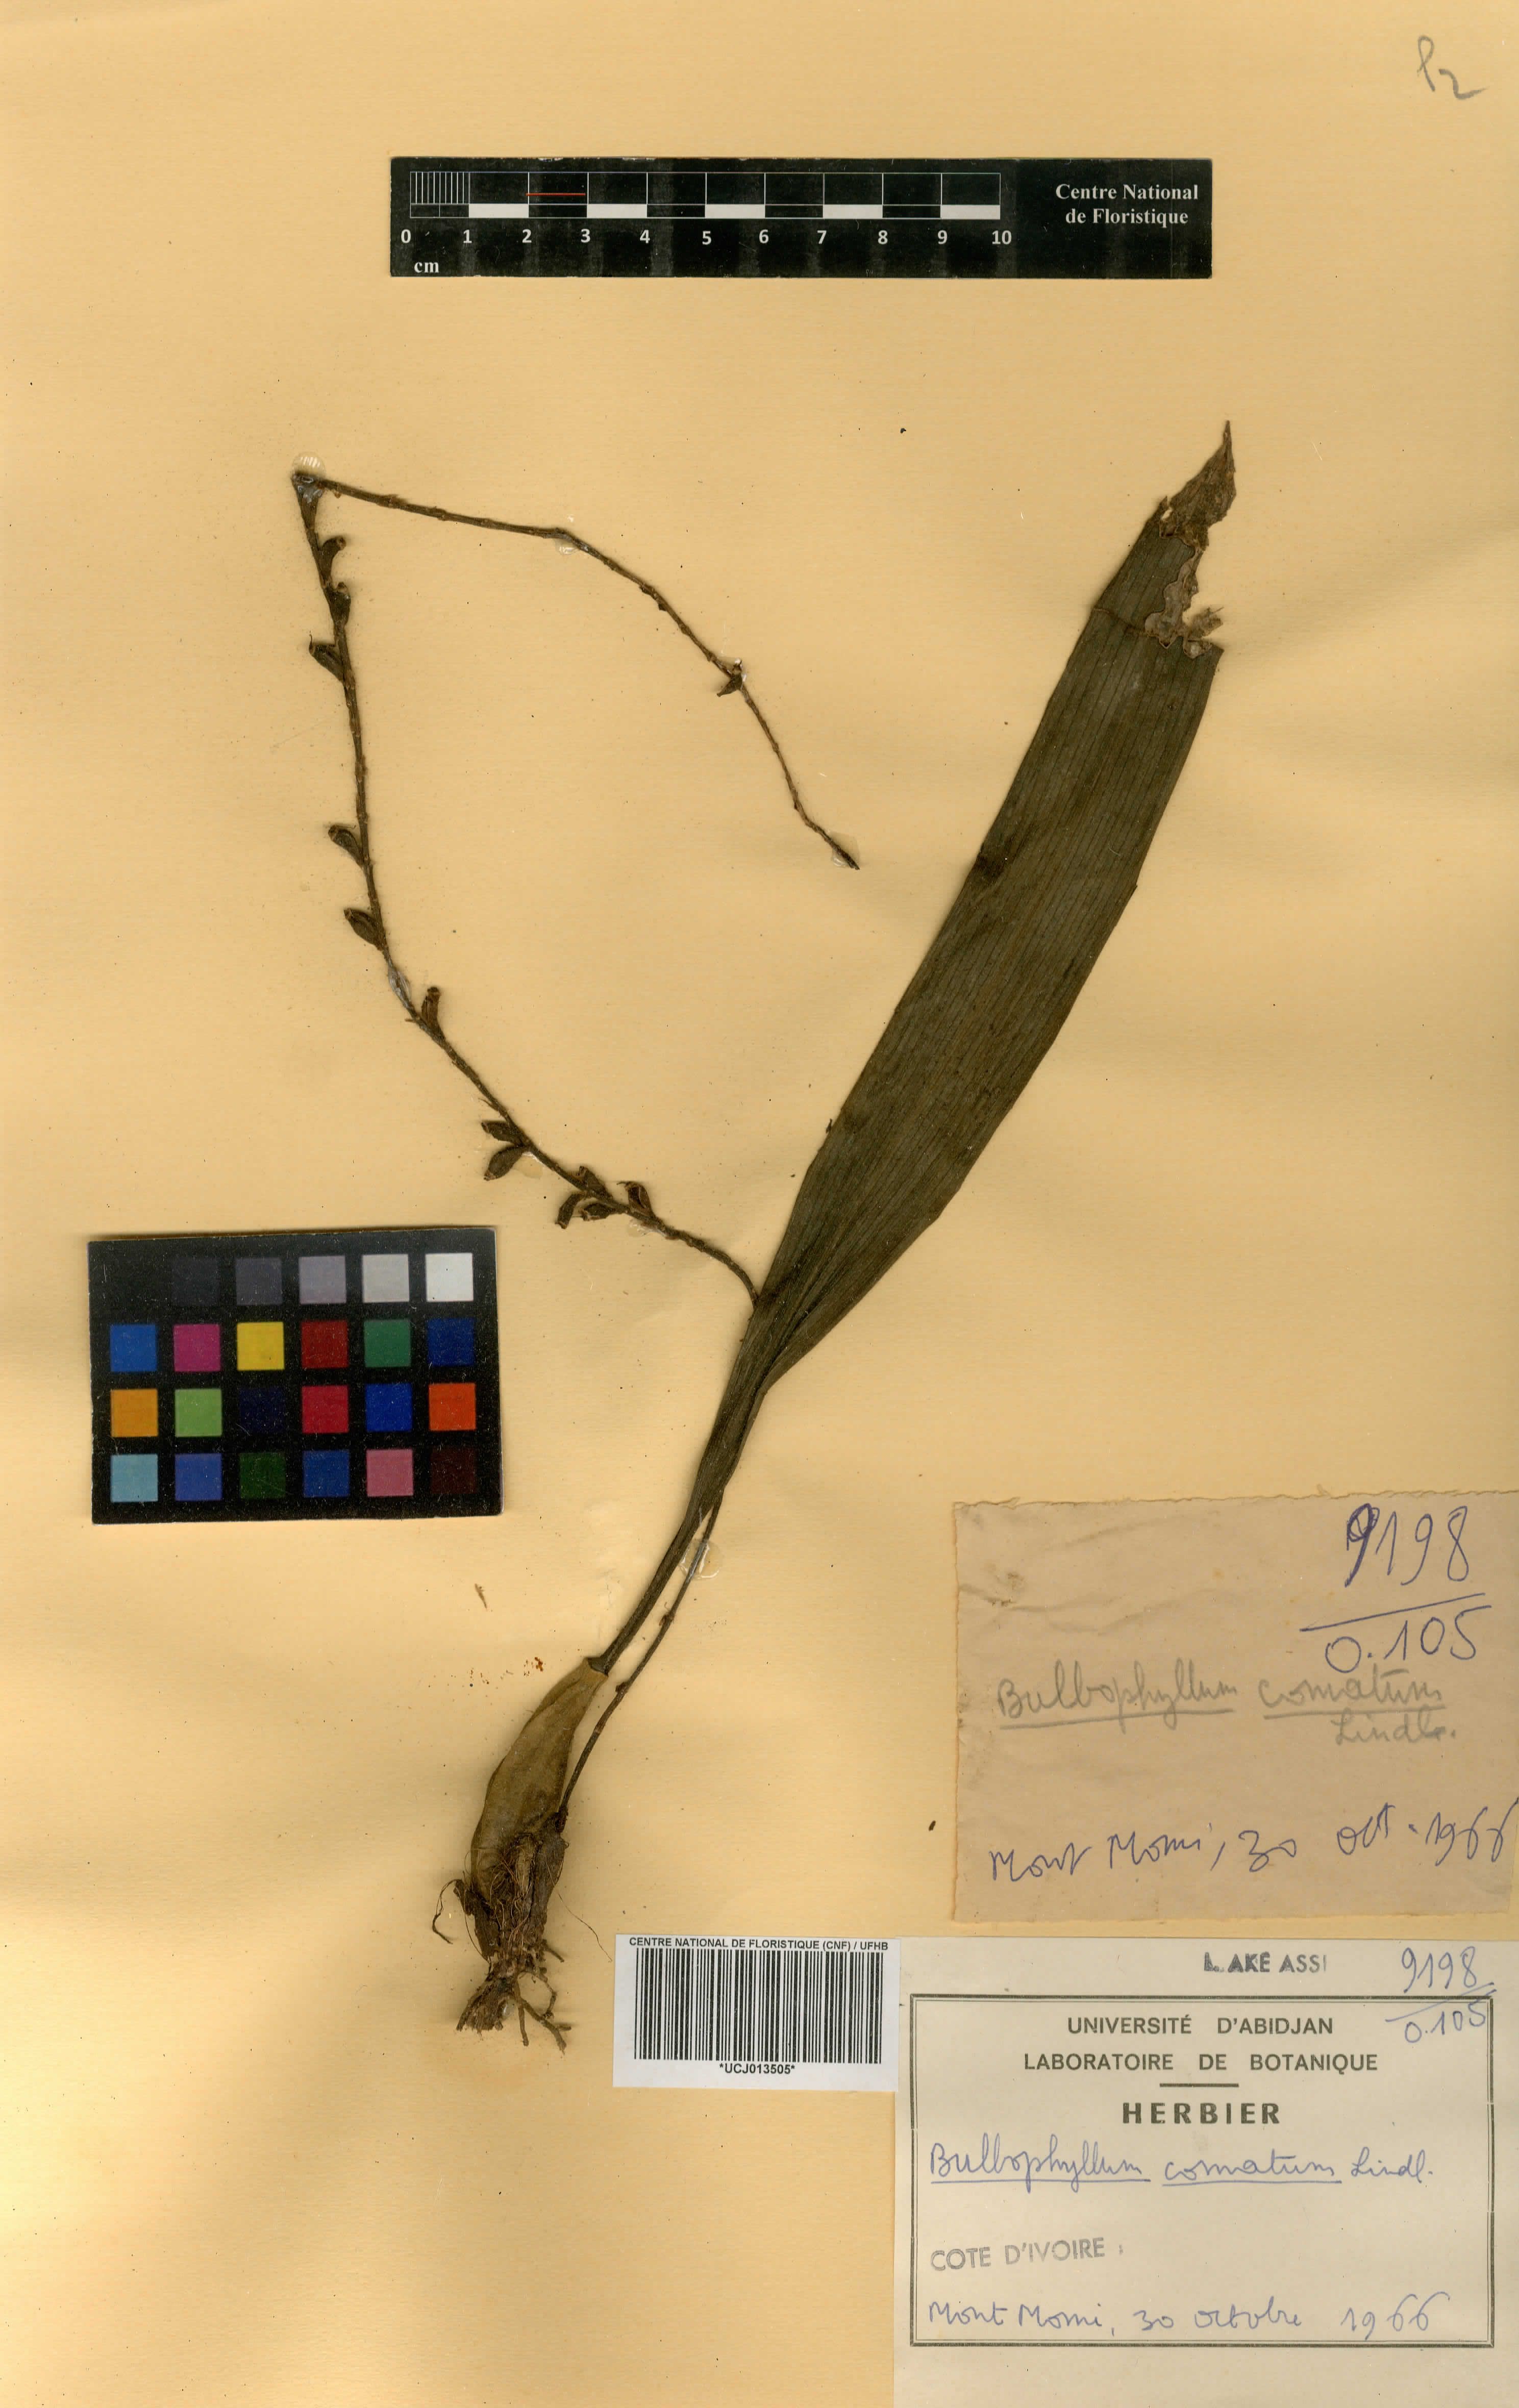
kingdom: Plantae
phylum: Tracheophyta
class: Liliopsida
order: Asparagales
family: Orchidaceae
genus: Bulbophyllum
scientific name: Bulbophyllum comatum
